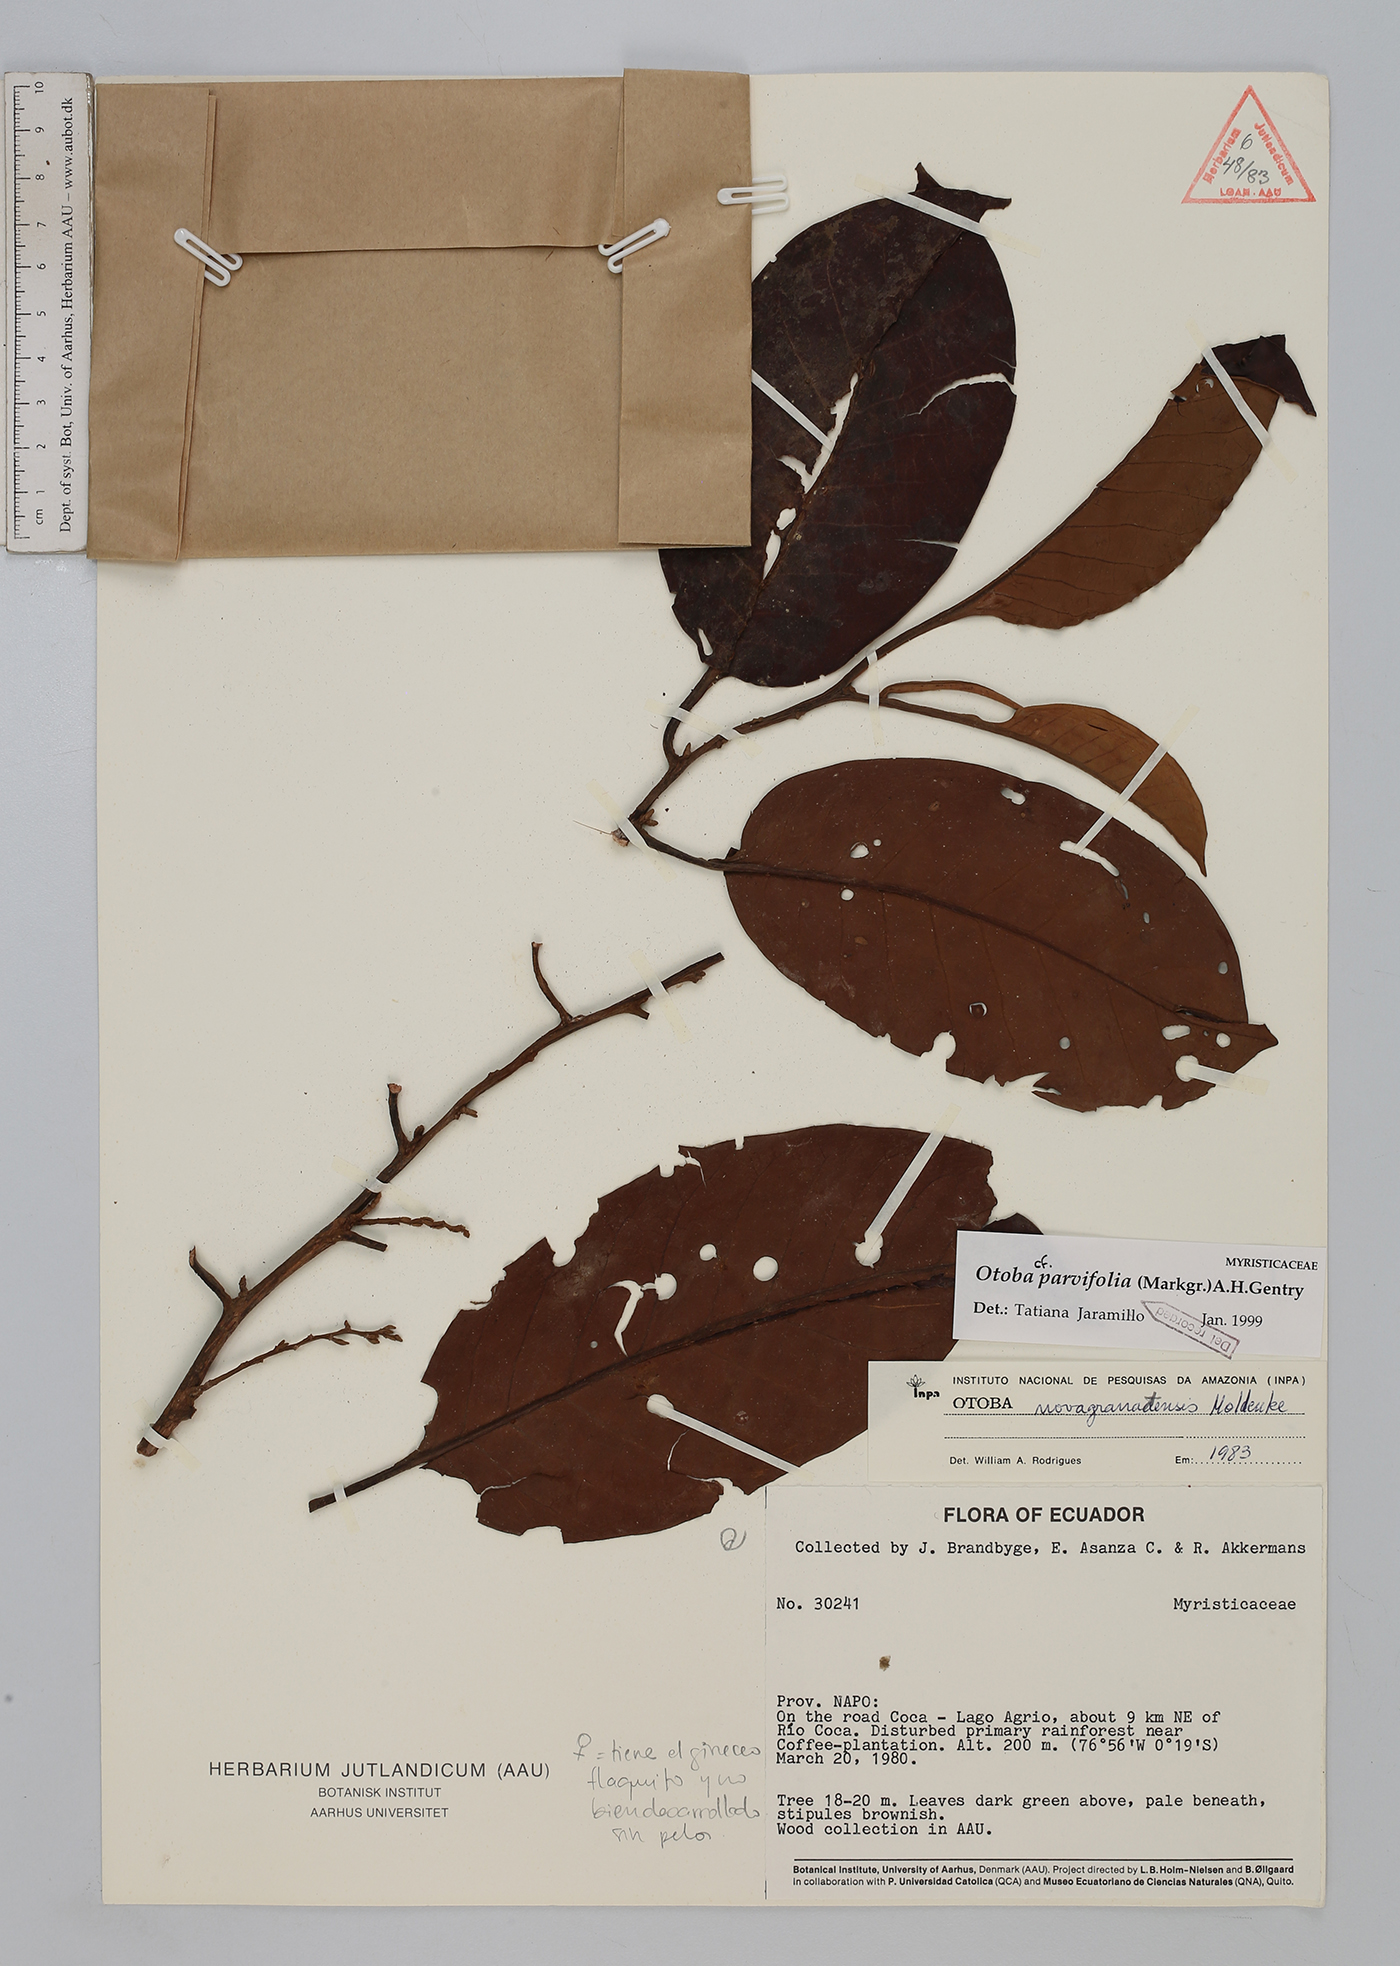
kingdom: Plantae
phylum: Tracheophyta
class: Magnoliopsida
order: Magnoliales
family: Myristicaceae
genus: Otoba
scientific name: Otoba parvifolia
